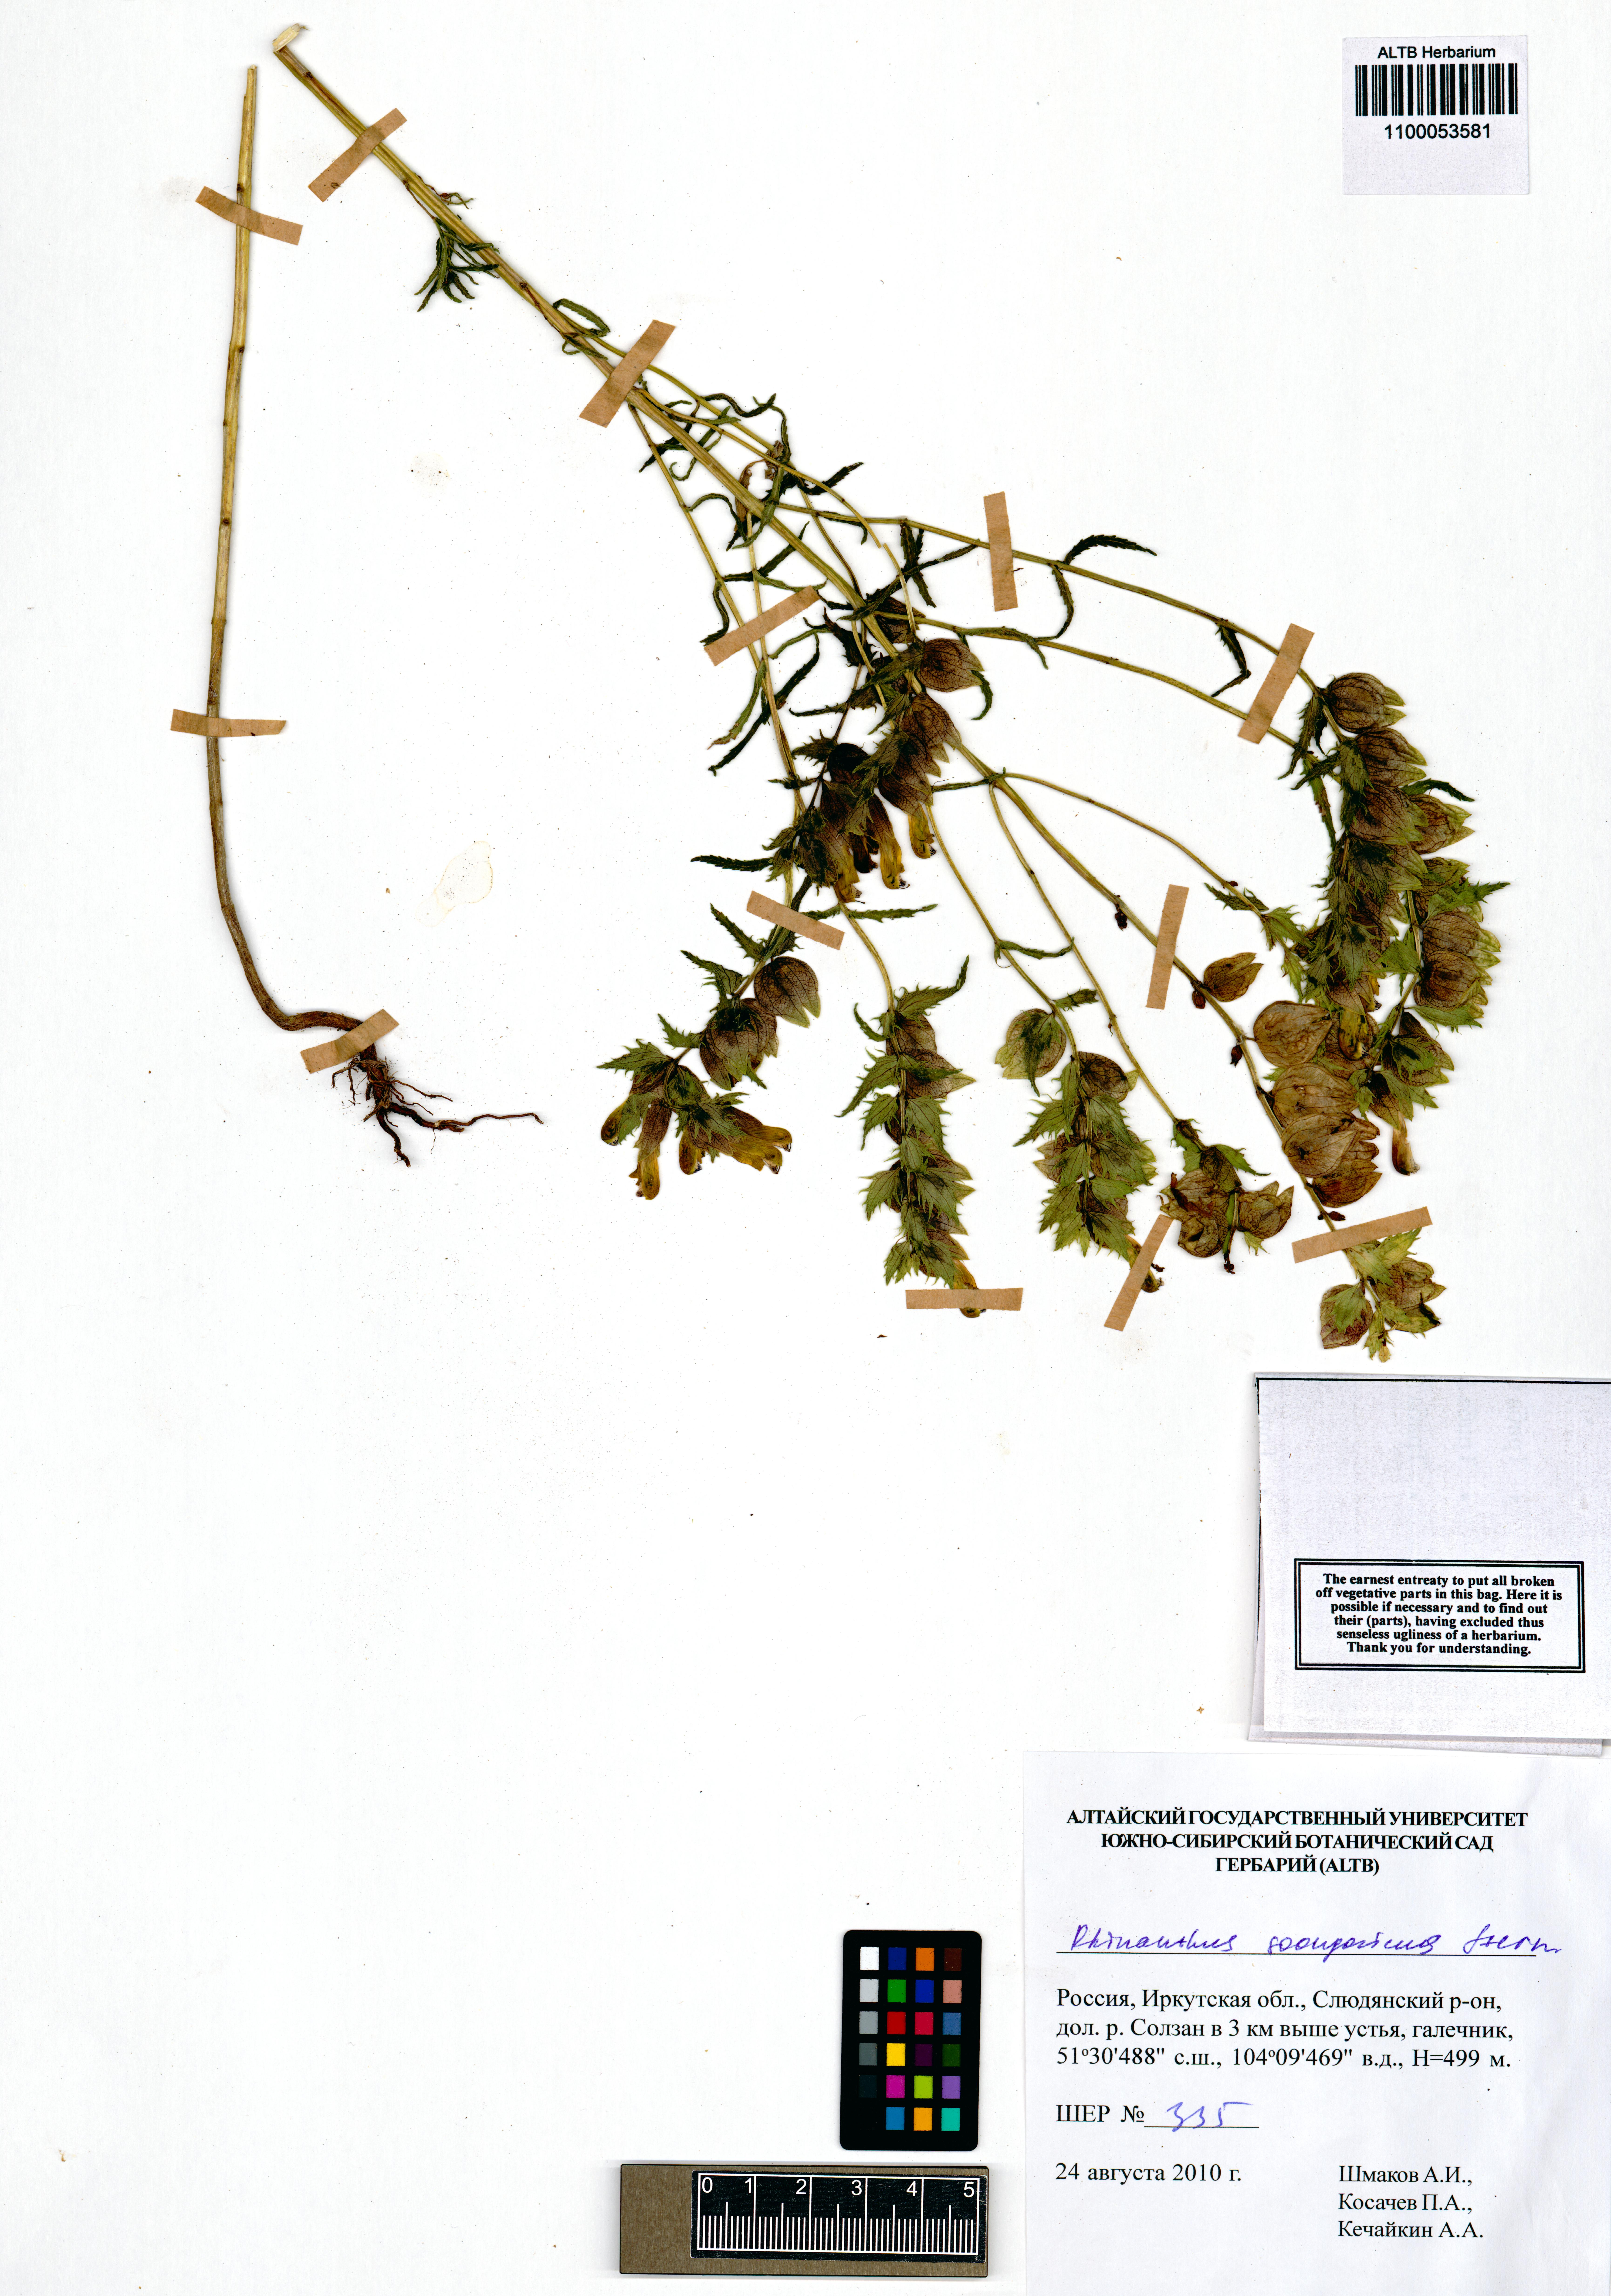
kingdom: Plantae
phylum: Tracheophyta
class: Magnoliopsida
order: Lamiales
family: Orobanchaceae
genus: Rhinanthus
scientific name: Rhinanthus songaricus
